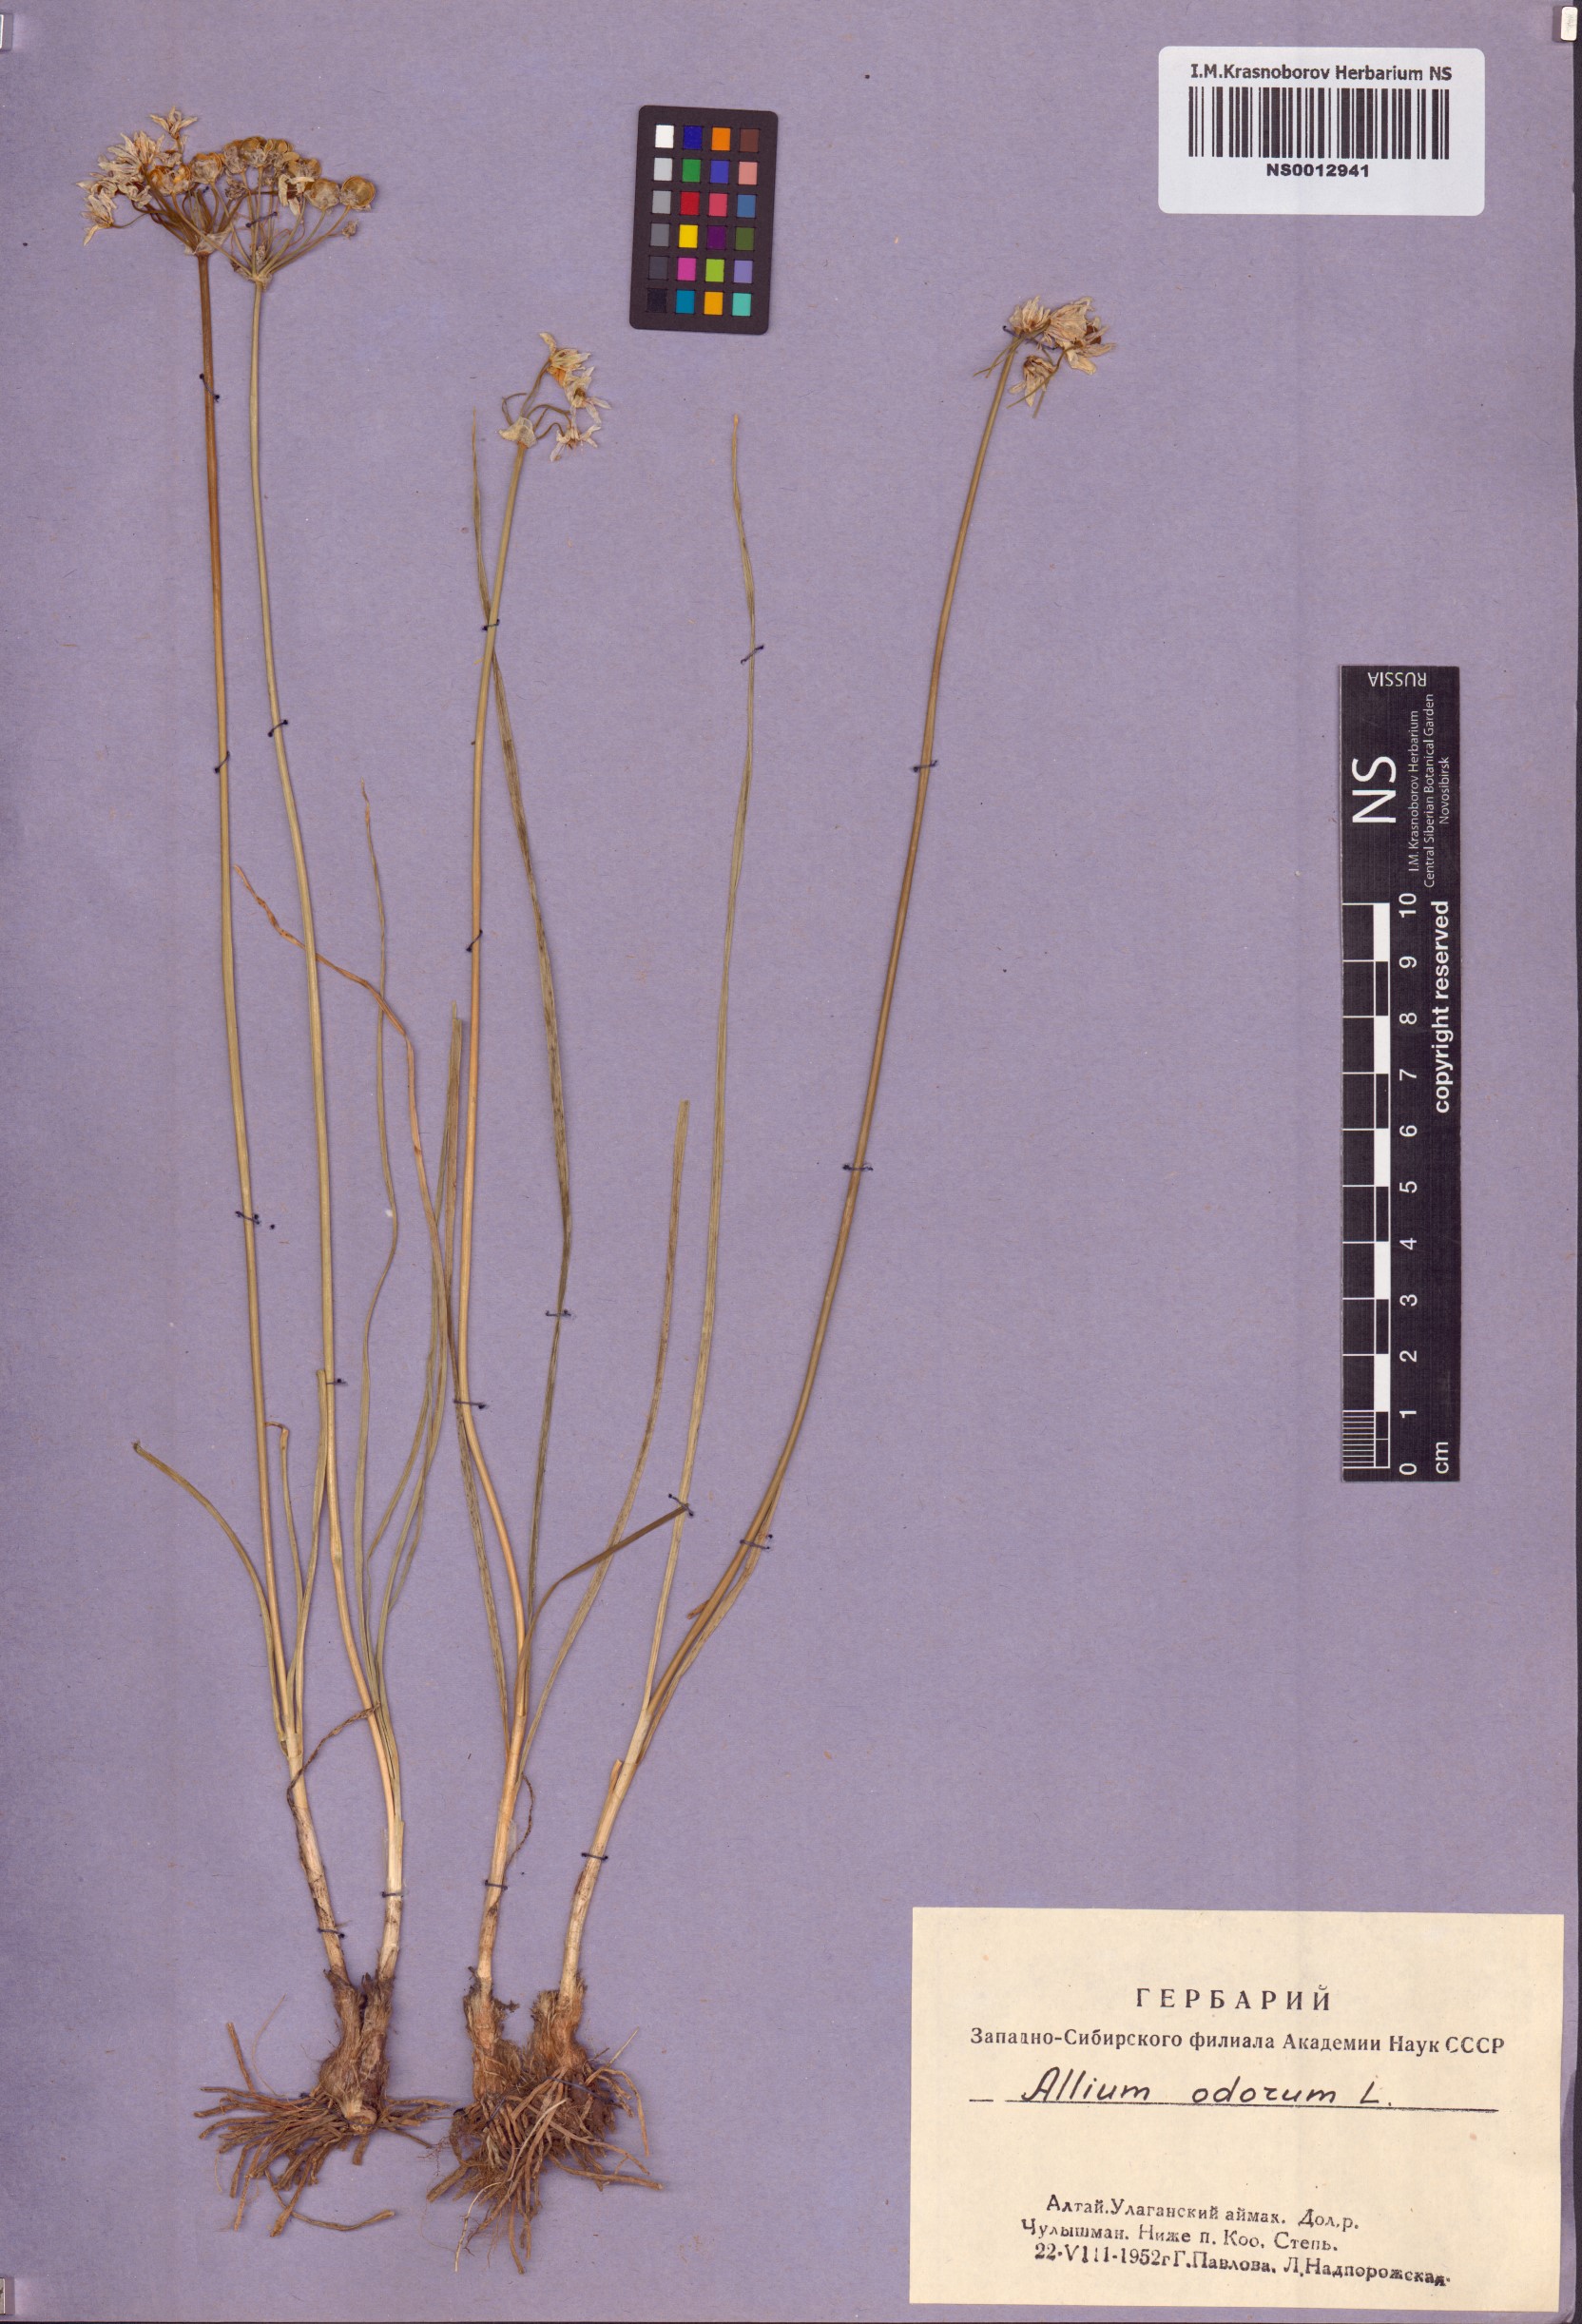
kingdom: Plantae
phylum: Tracheophyta
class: Liliopsida
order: Asparagales
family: Amaryllidaceae
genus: Allium
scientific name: Allium ramosum
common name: Fragrant garlic
